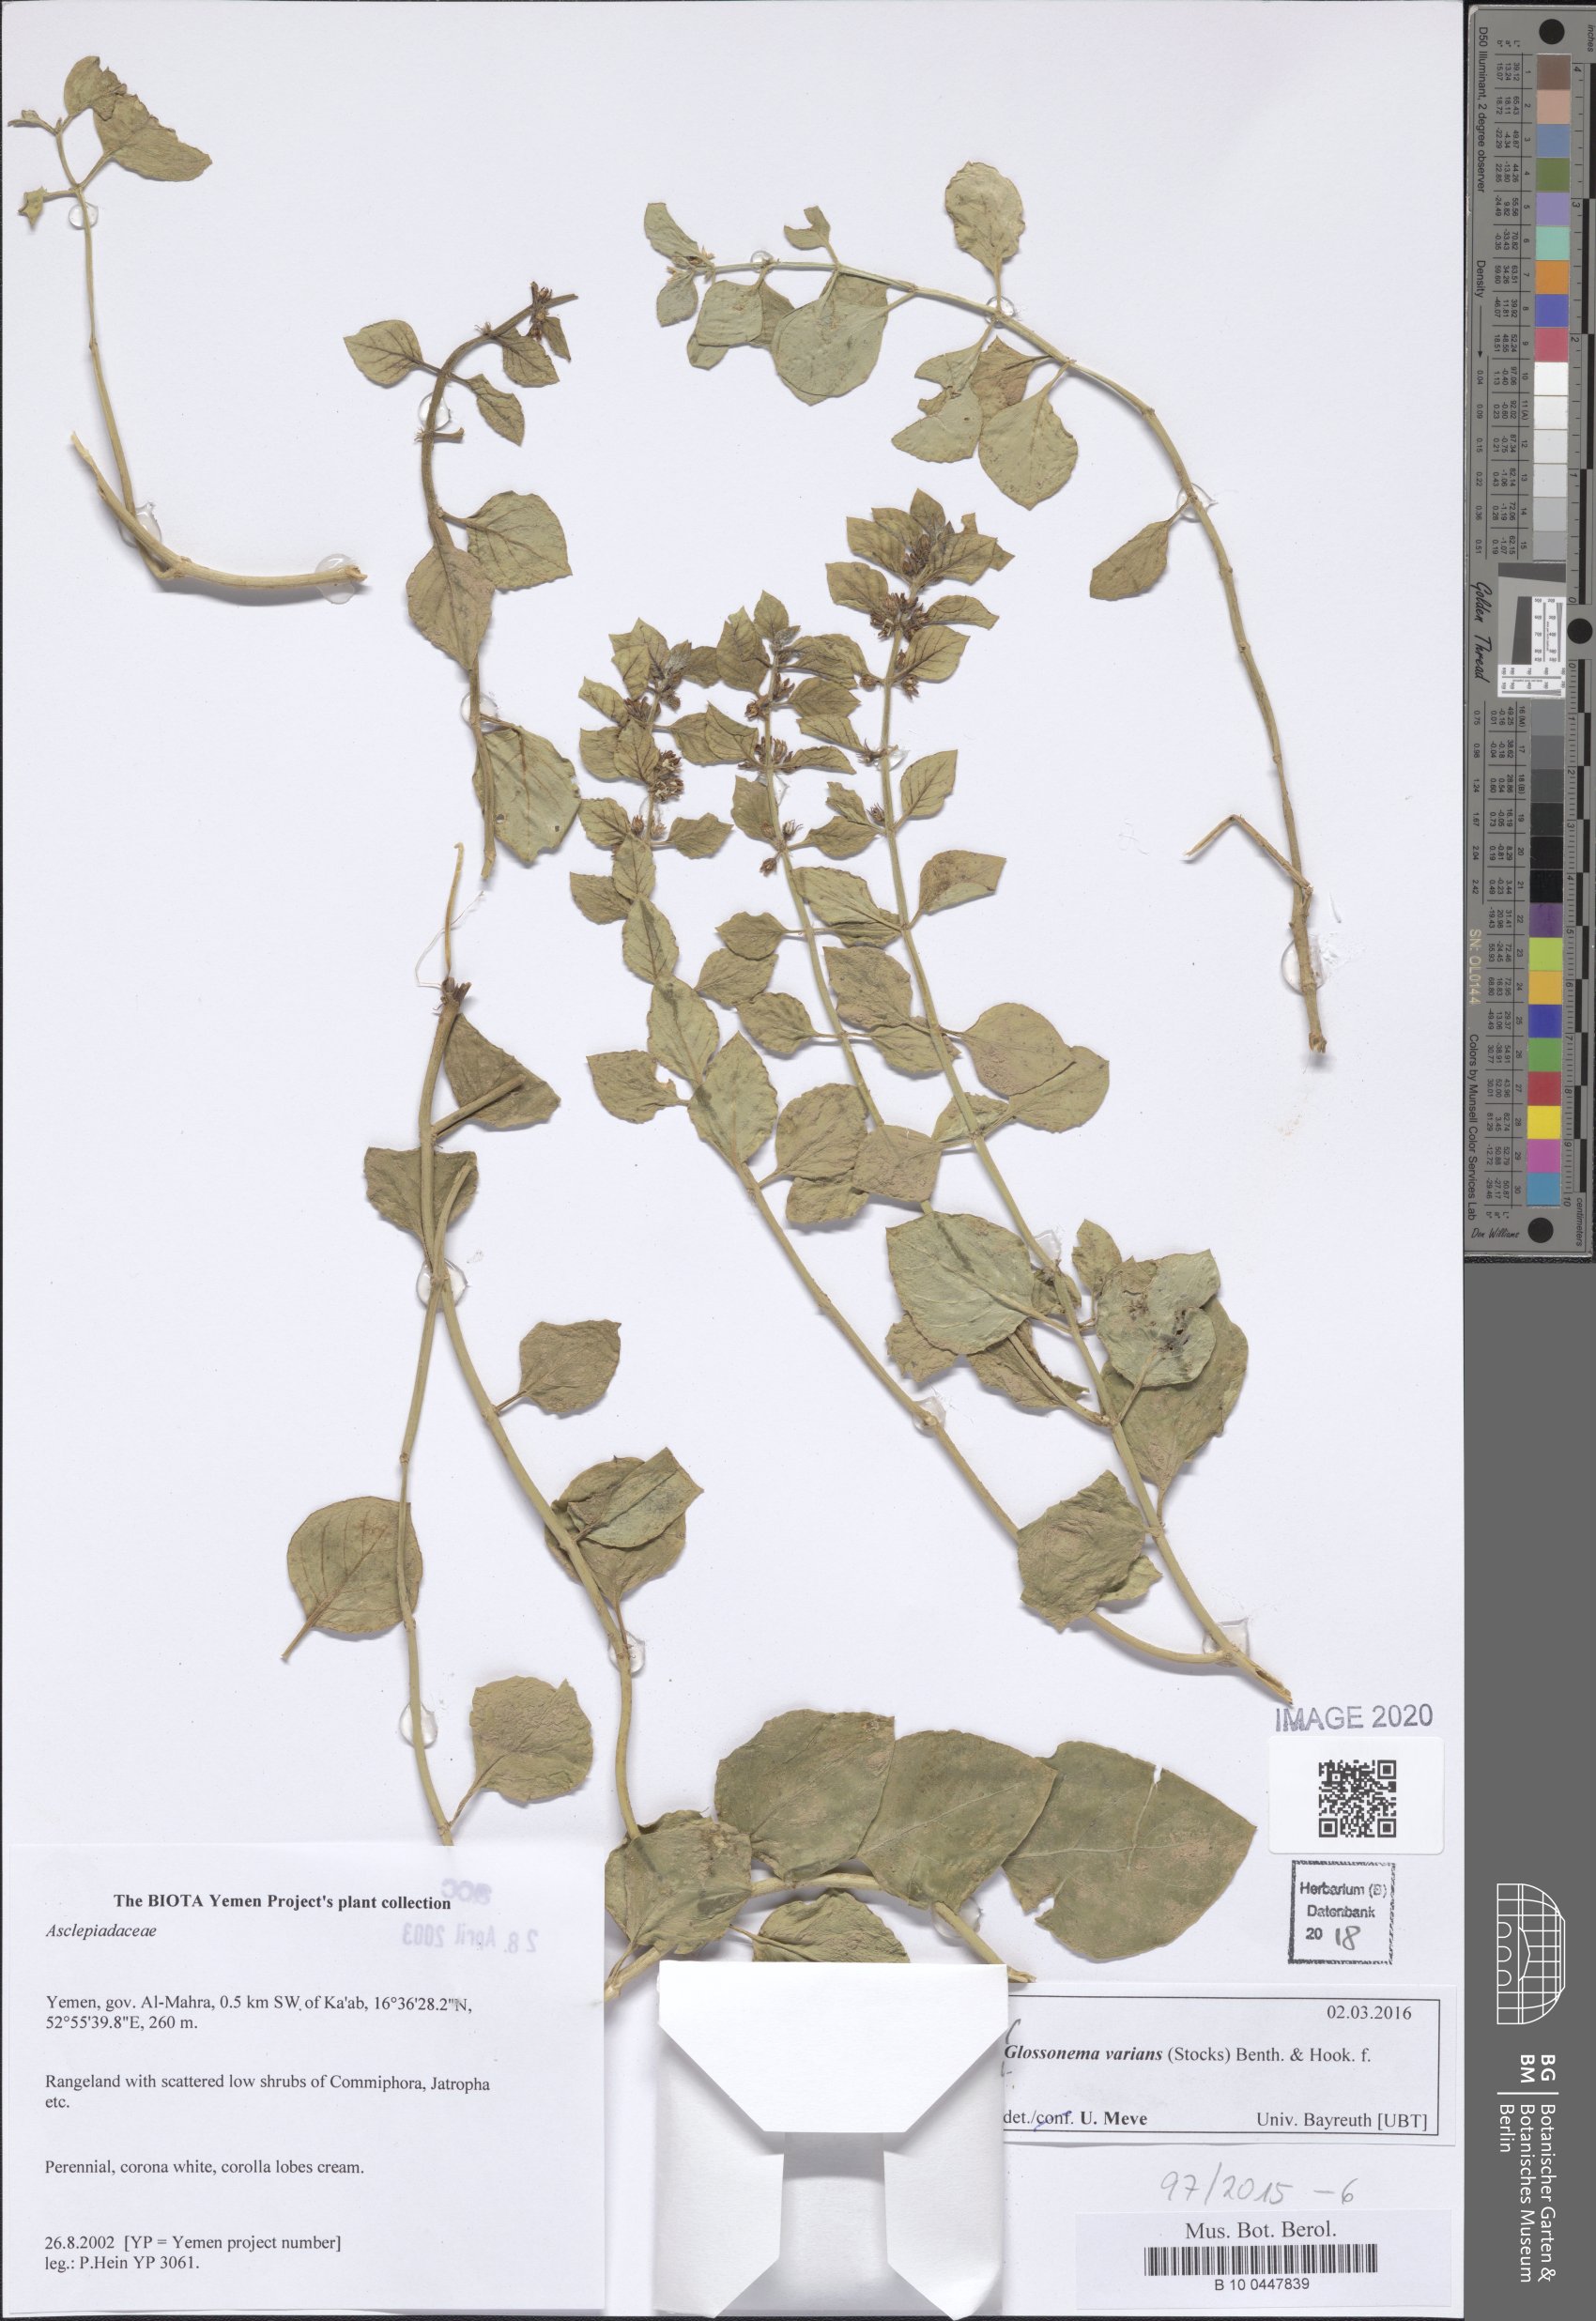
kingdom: Plantae
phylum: Tracheophyta
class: Magnoliopsida
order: Gentianales
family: Apocynaceae
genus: Cynanchum
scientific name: Cynanchum varians
